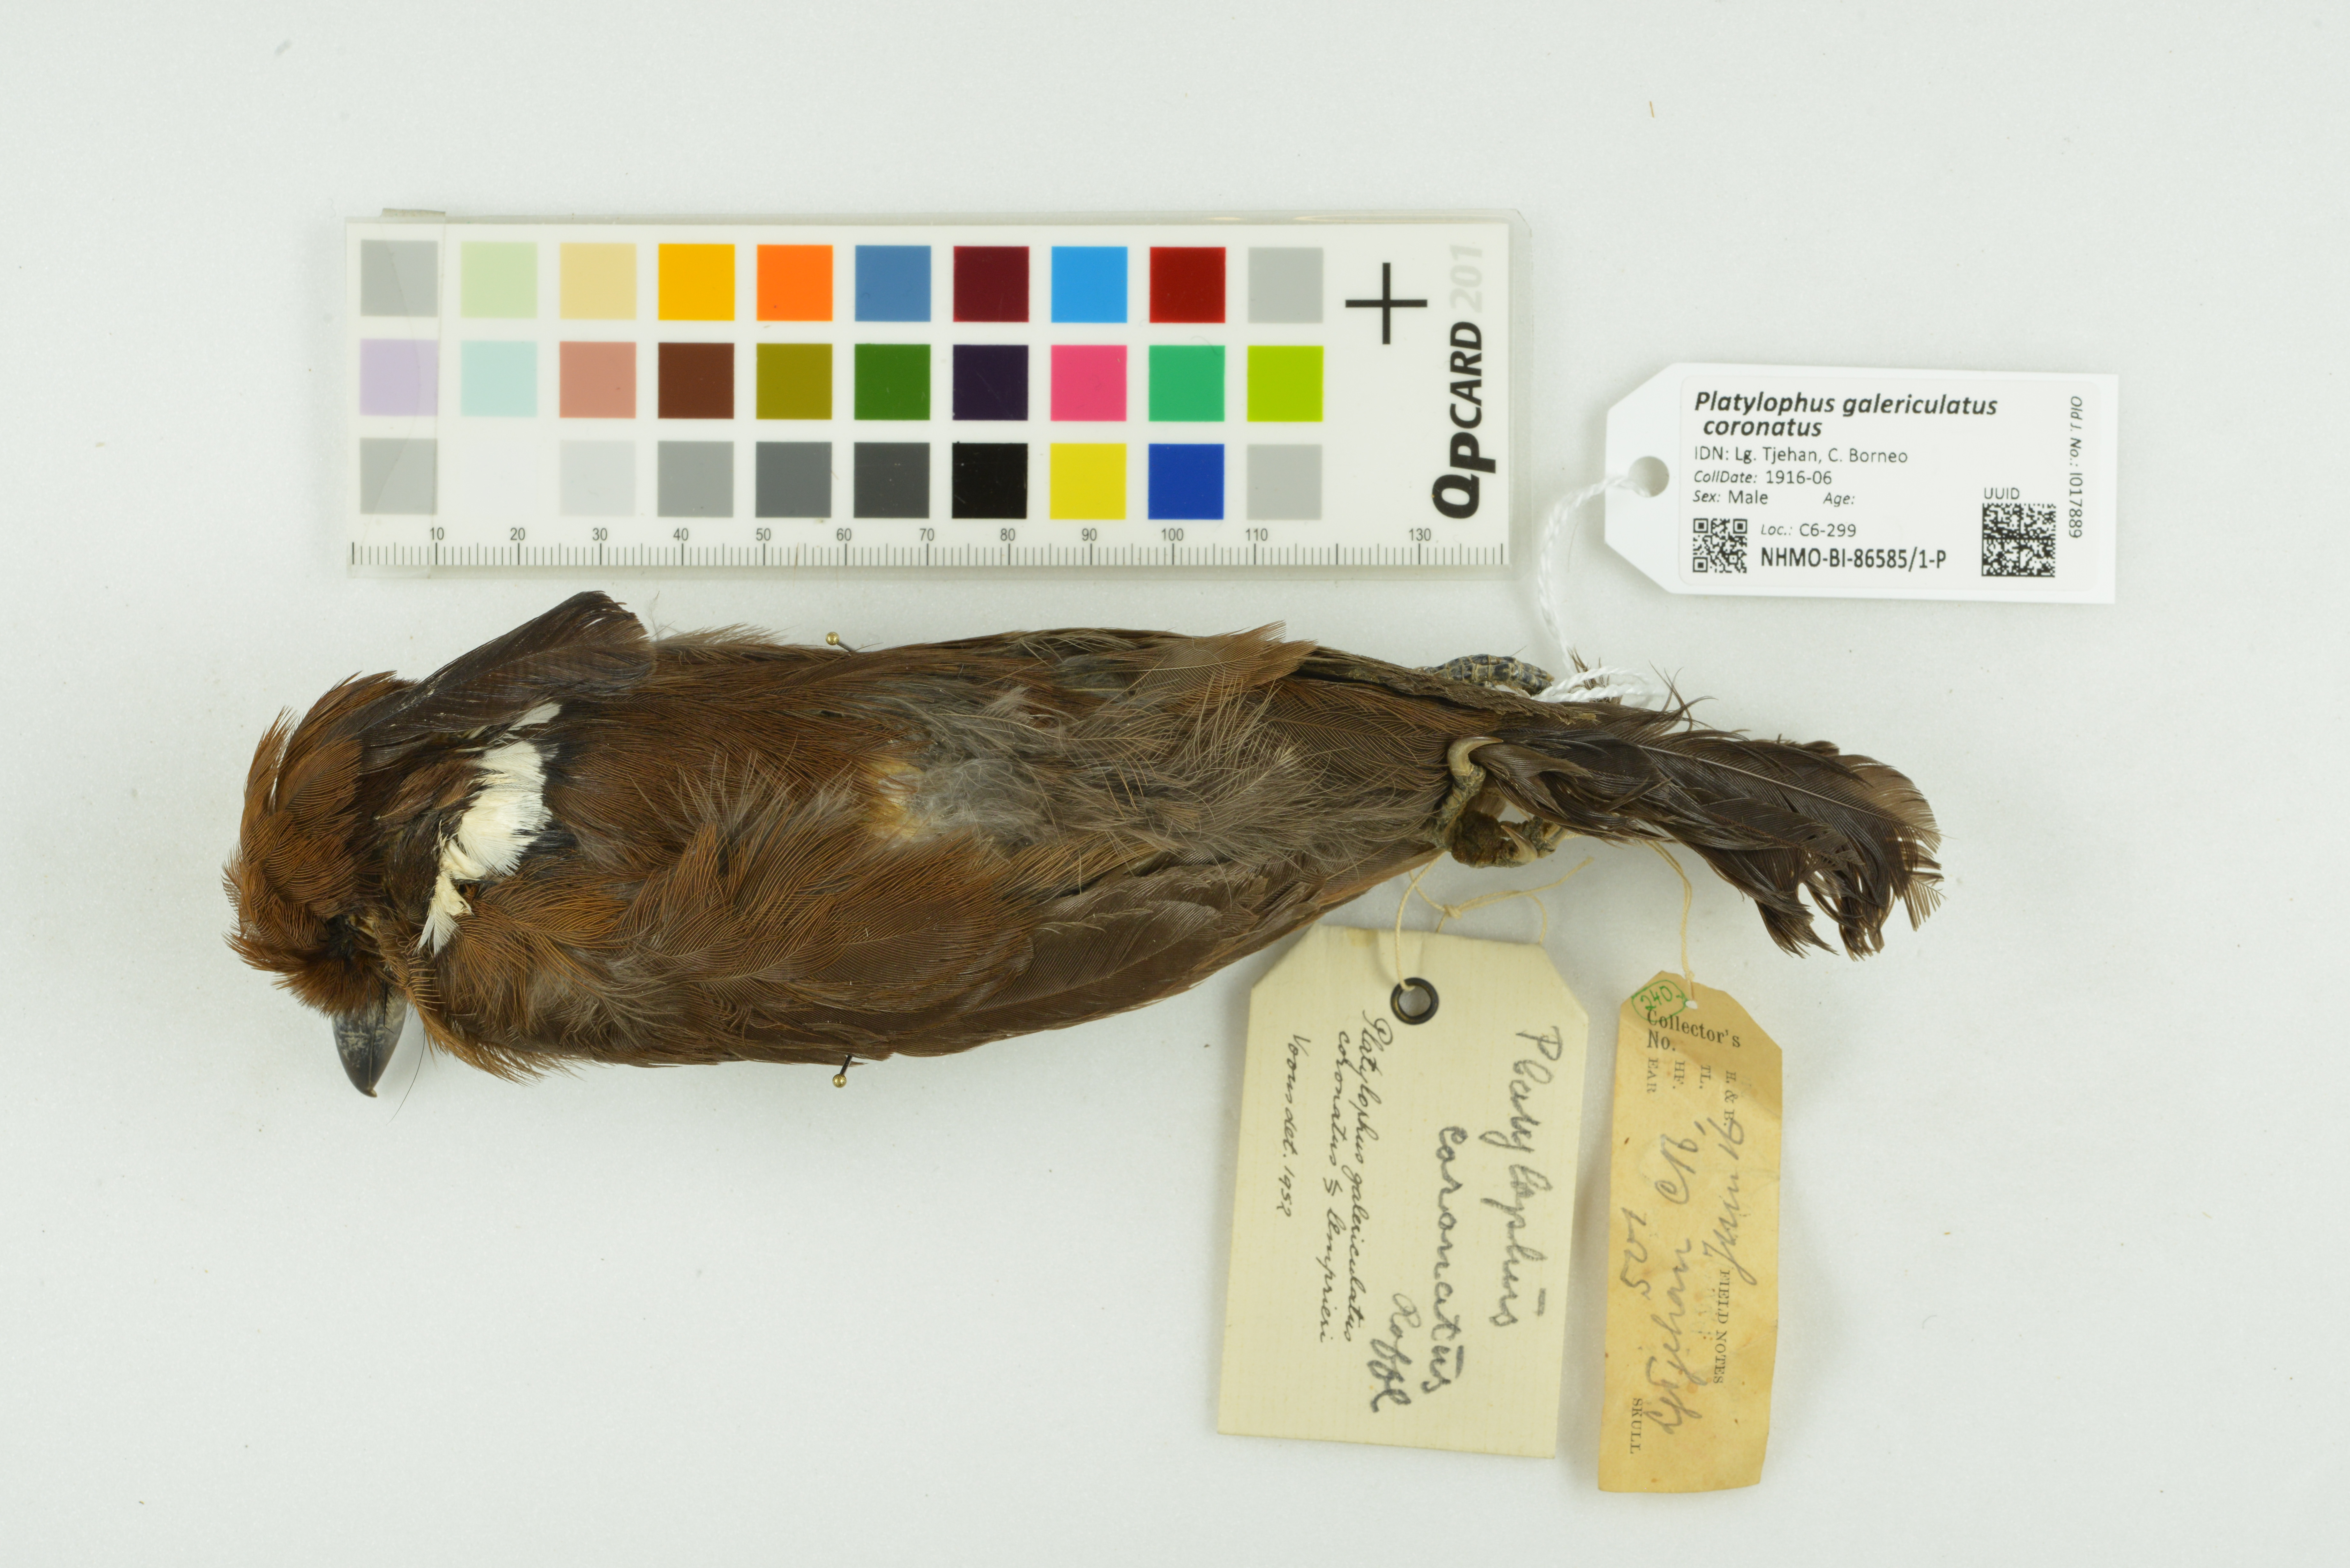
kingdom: Animalia
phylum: Chordata
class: Aves
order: Passeriformes
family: Corvidae
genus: Platylophus
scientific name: Platylophus galericulatus
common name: Crested jay
